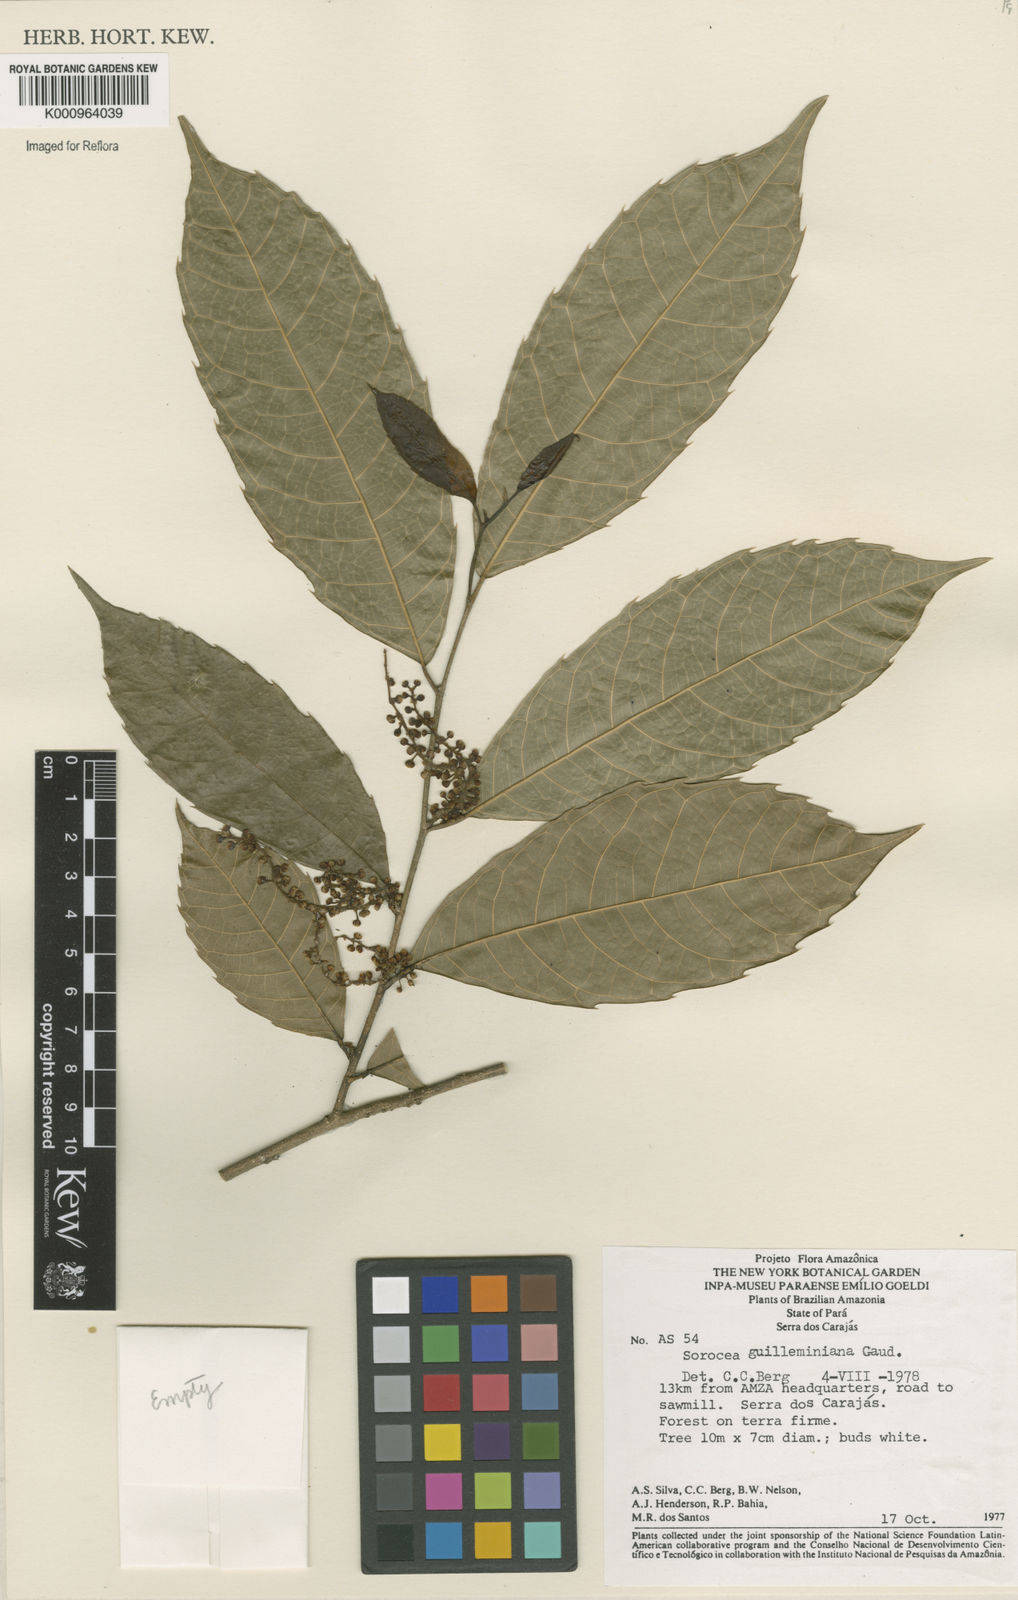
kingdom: Plantae
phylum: Tracheophyta
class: Magnoliopsida
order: Rosales
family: Moraceae
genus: Sorocea
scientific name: Sorocea guilleminiana
